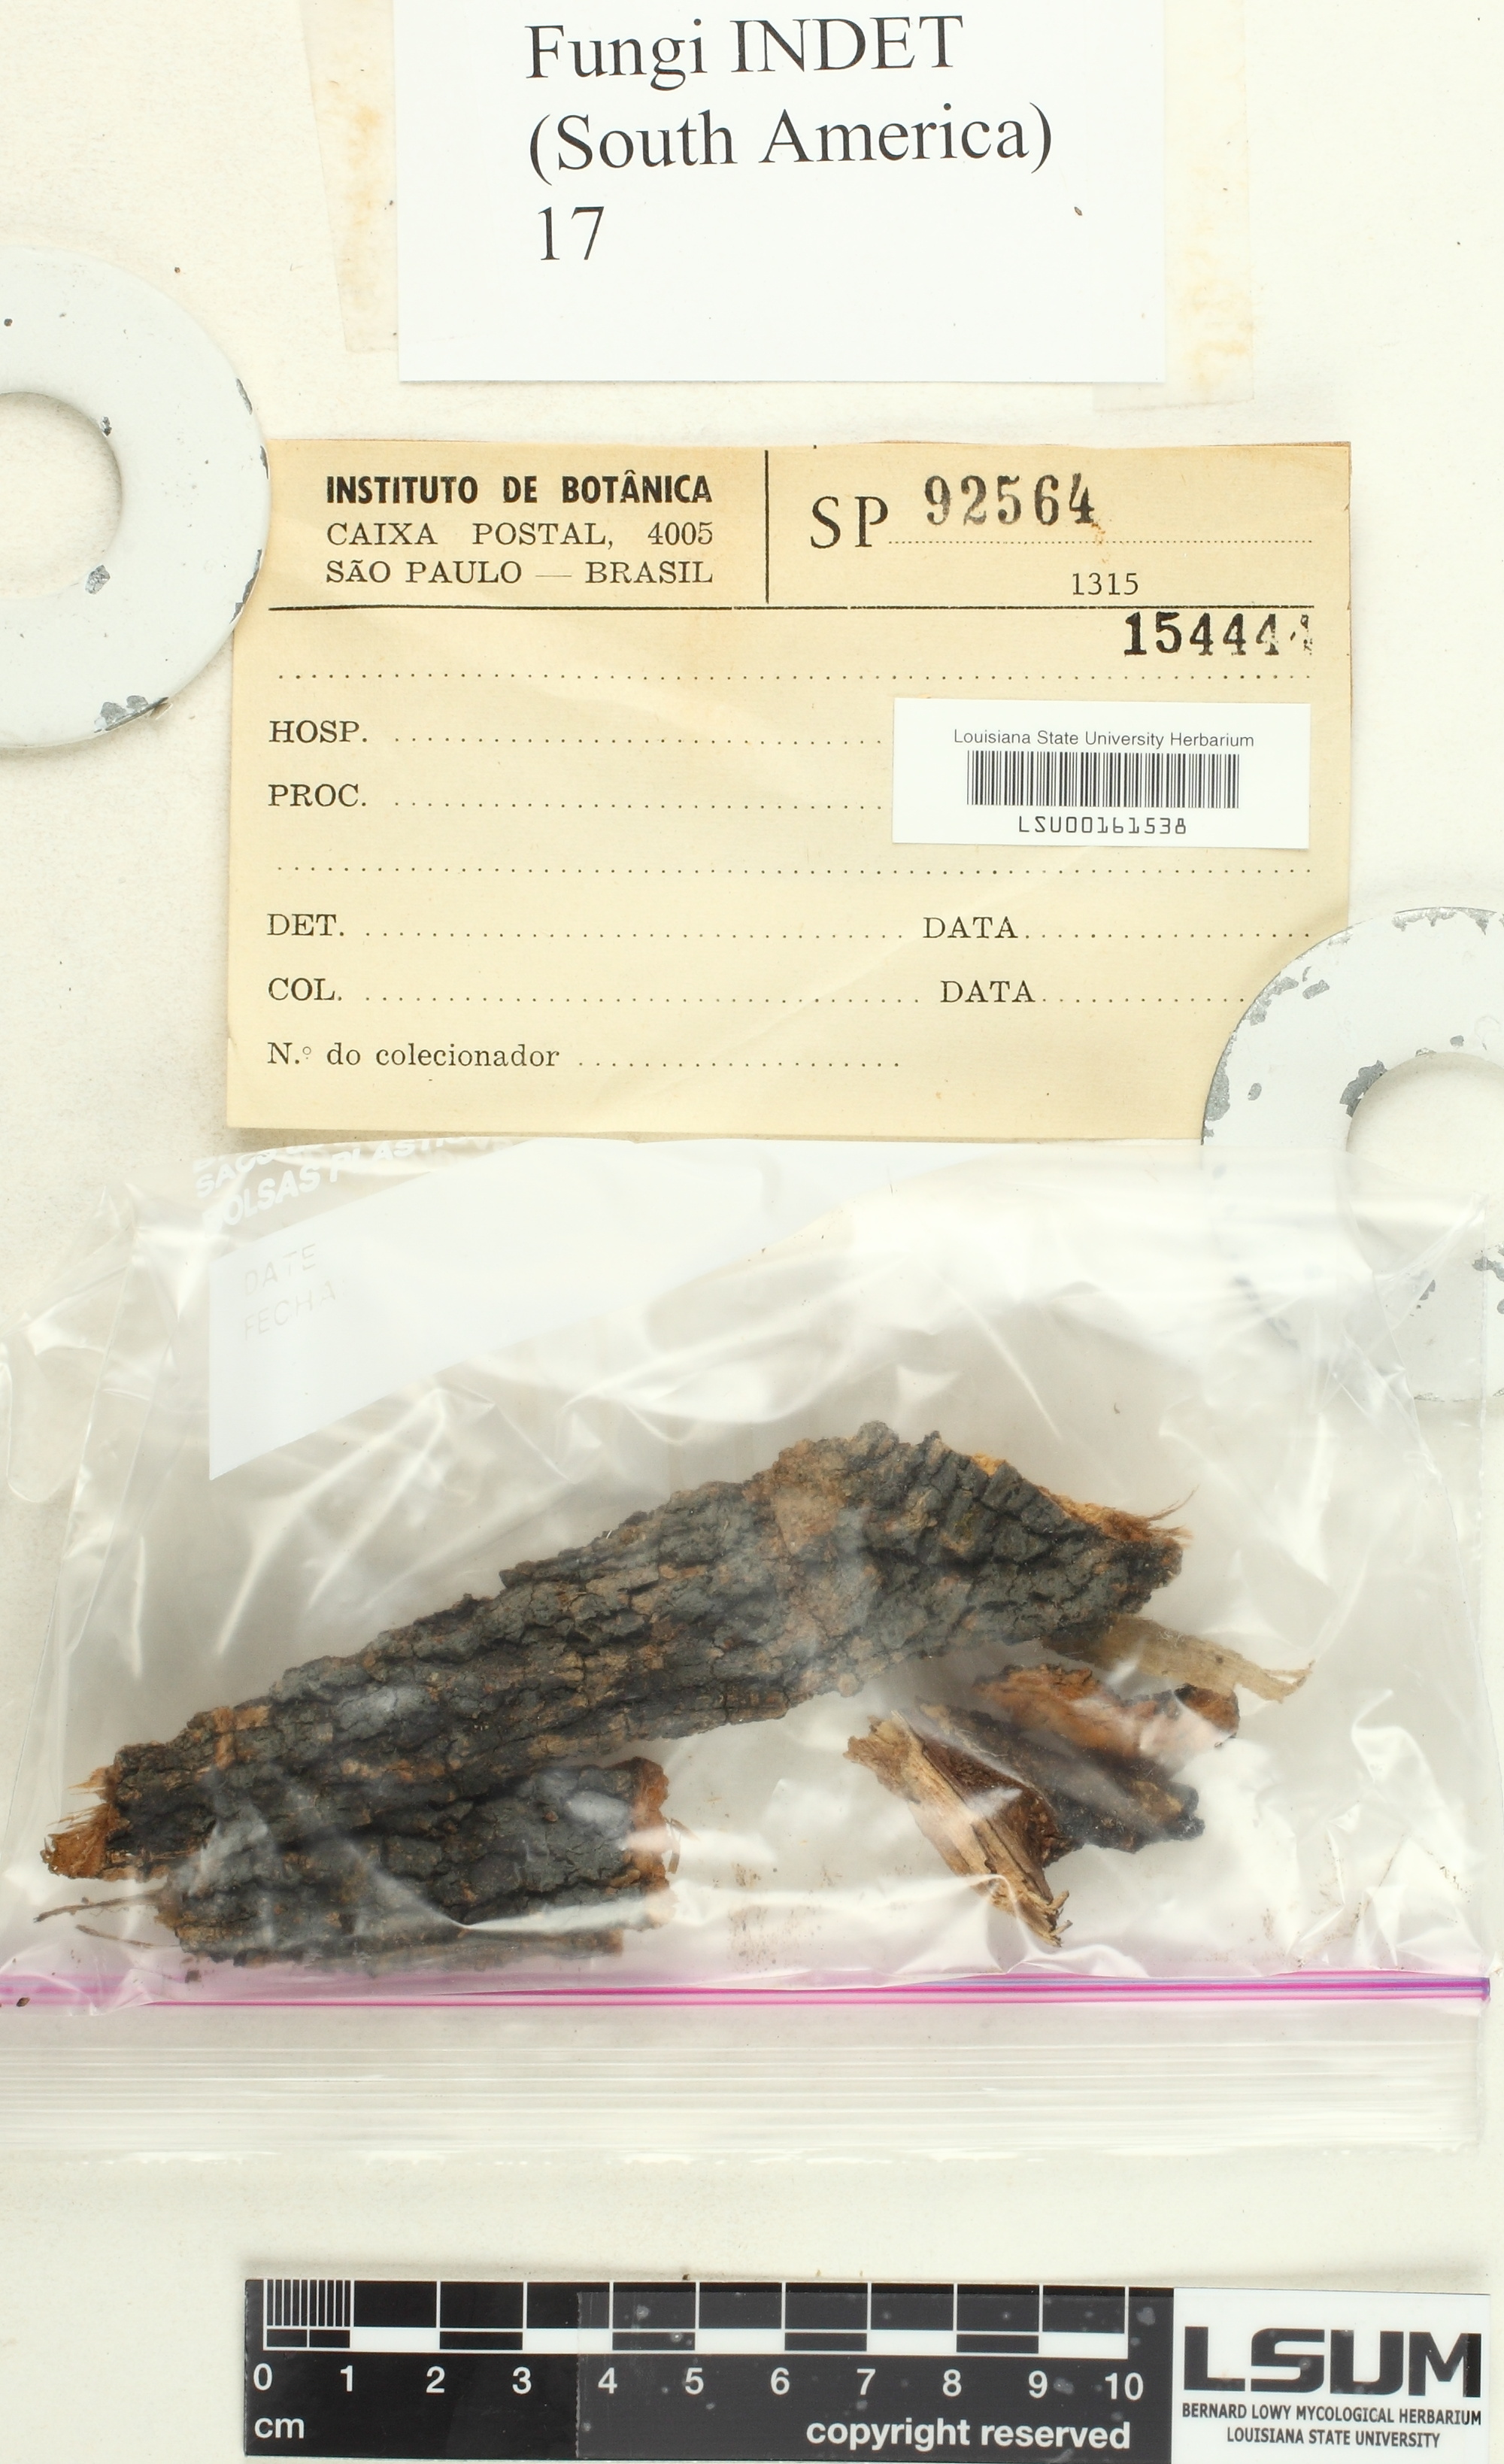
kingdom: Fungi
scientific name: Fungi
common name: Fungi
